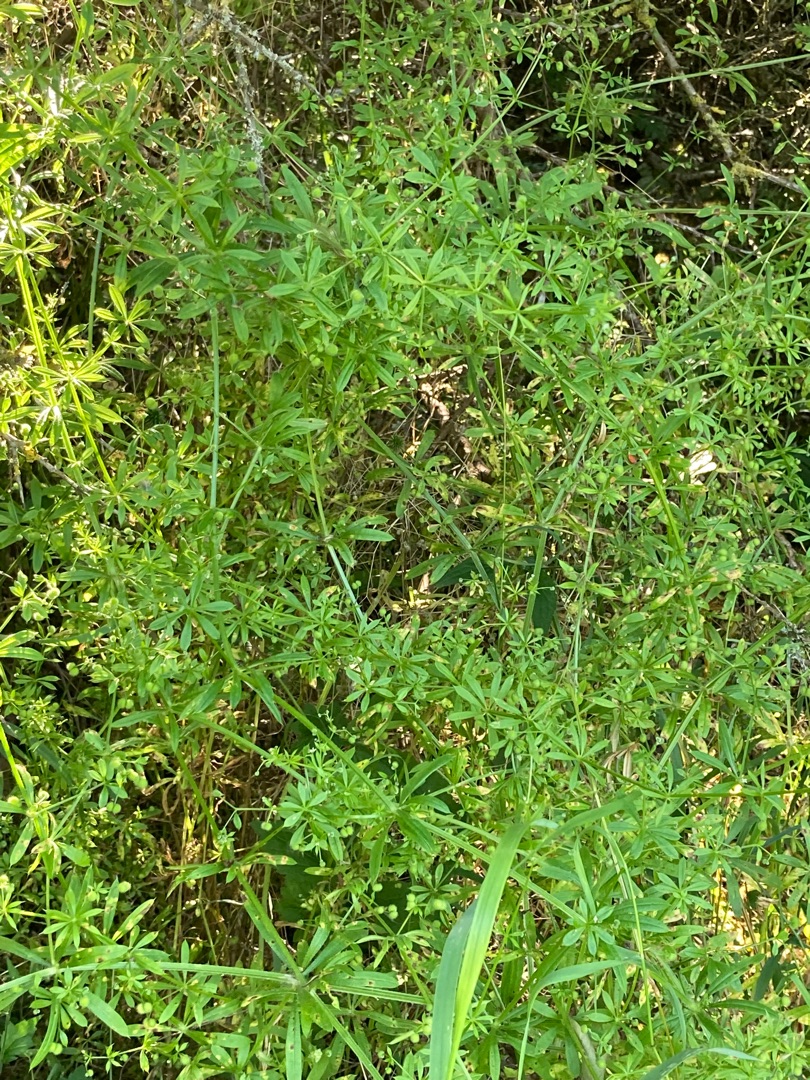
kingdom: Plantae
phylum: Tracheophyta
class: Magnoliopsida
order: Gentianales
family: Rubiaceae
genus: Galium
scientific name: Galium aparine
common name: Burre-snerre
